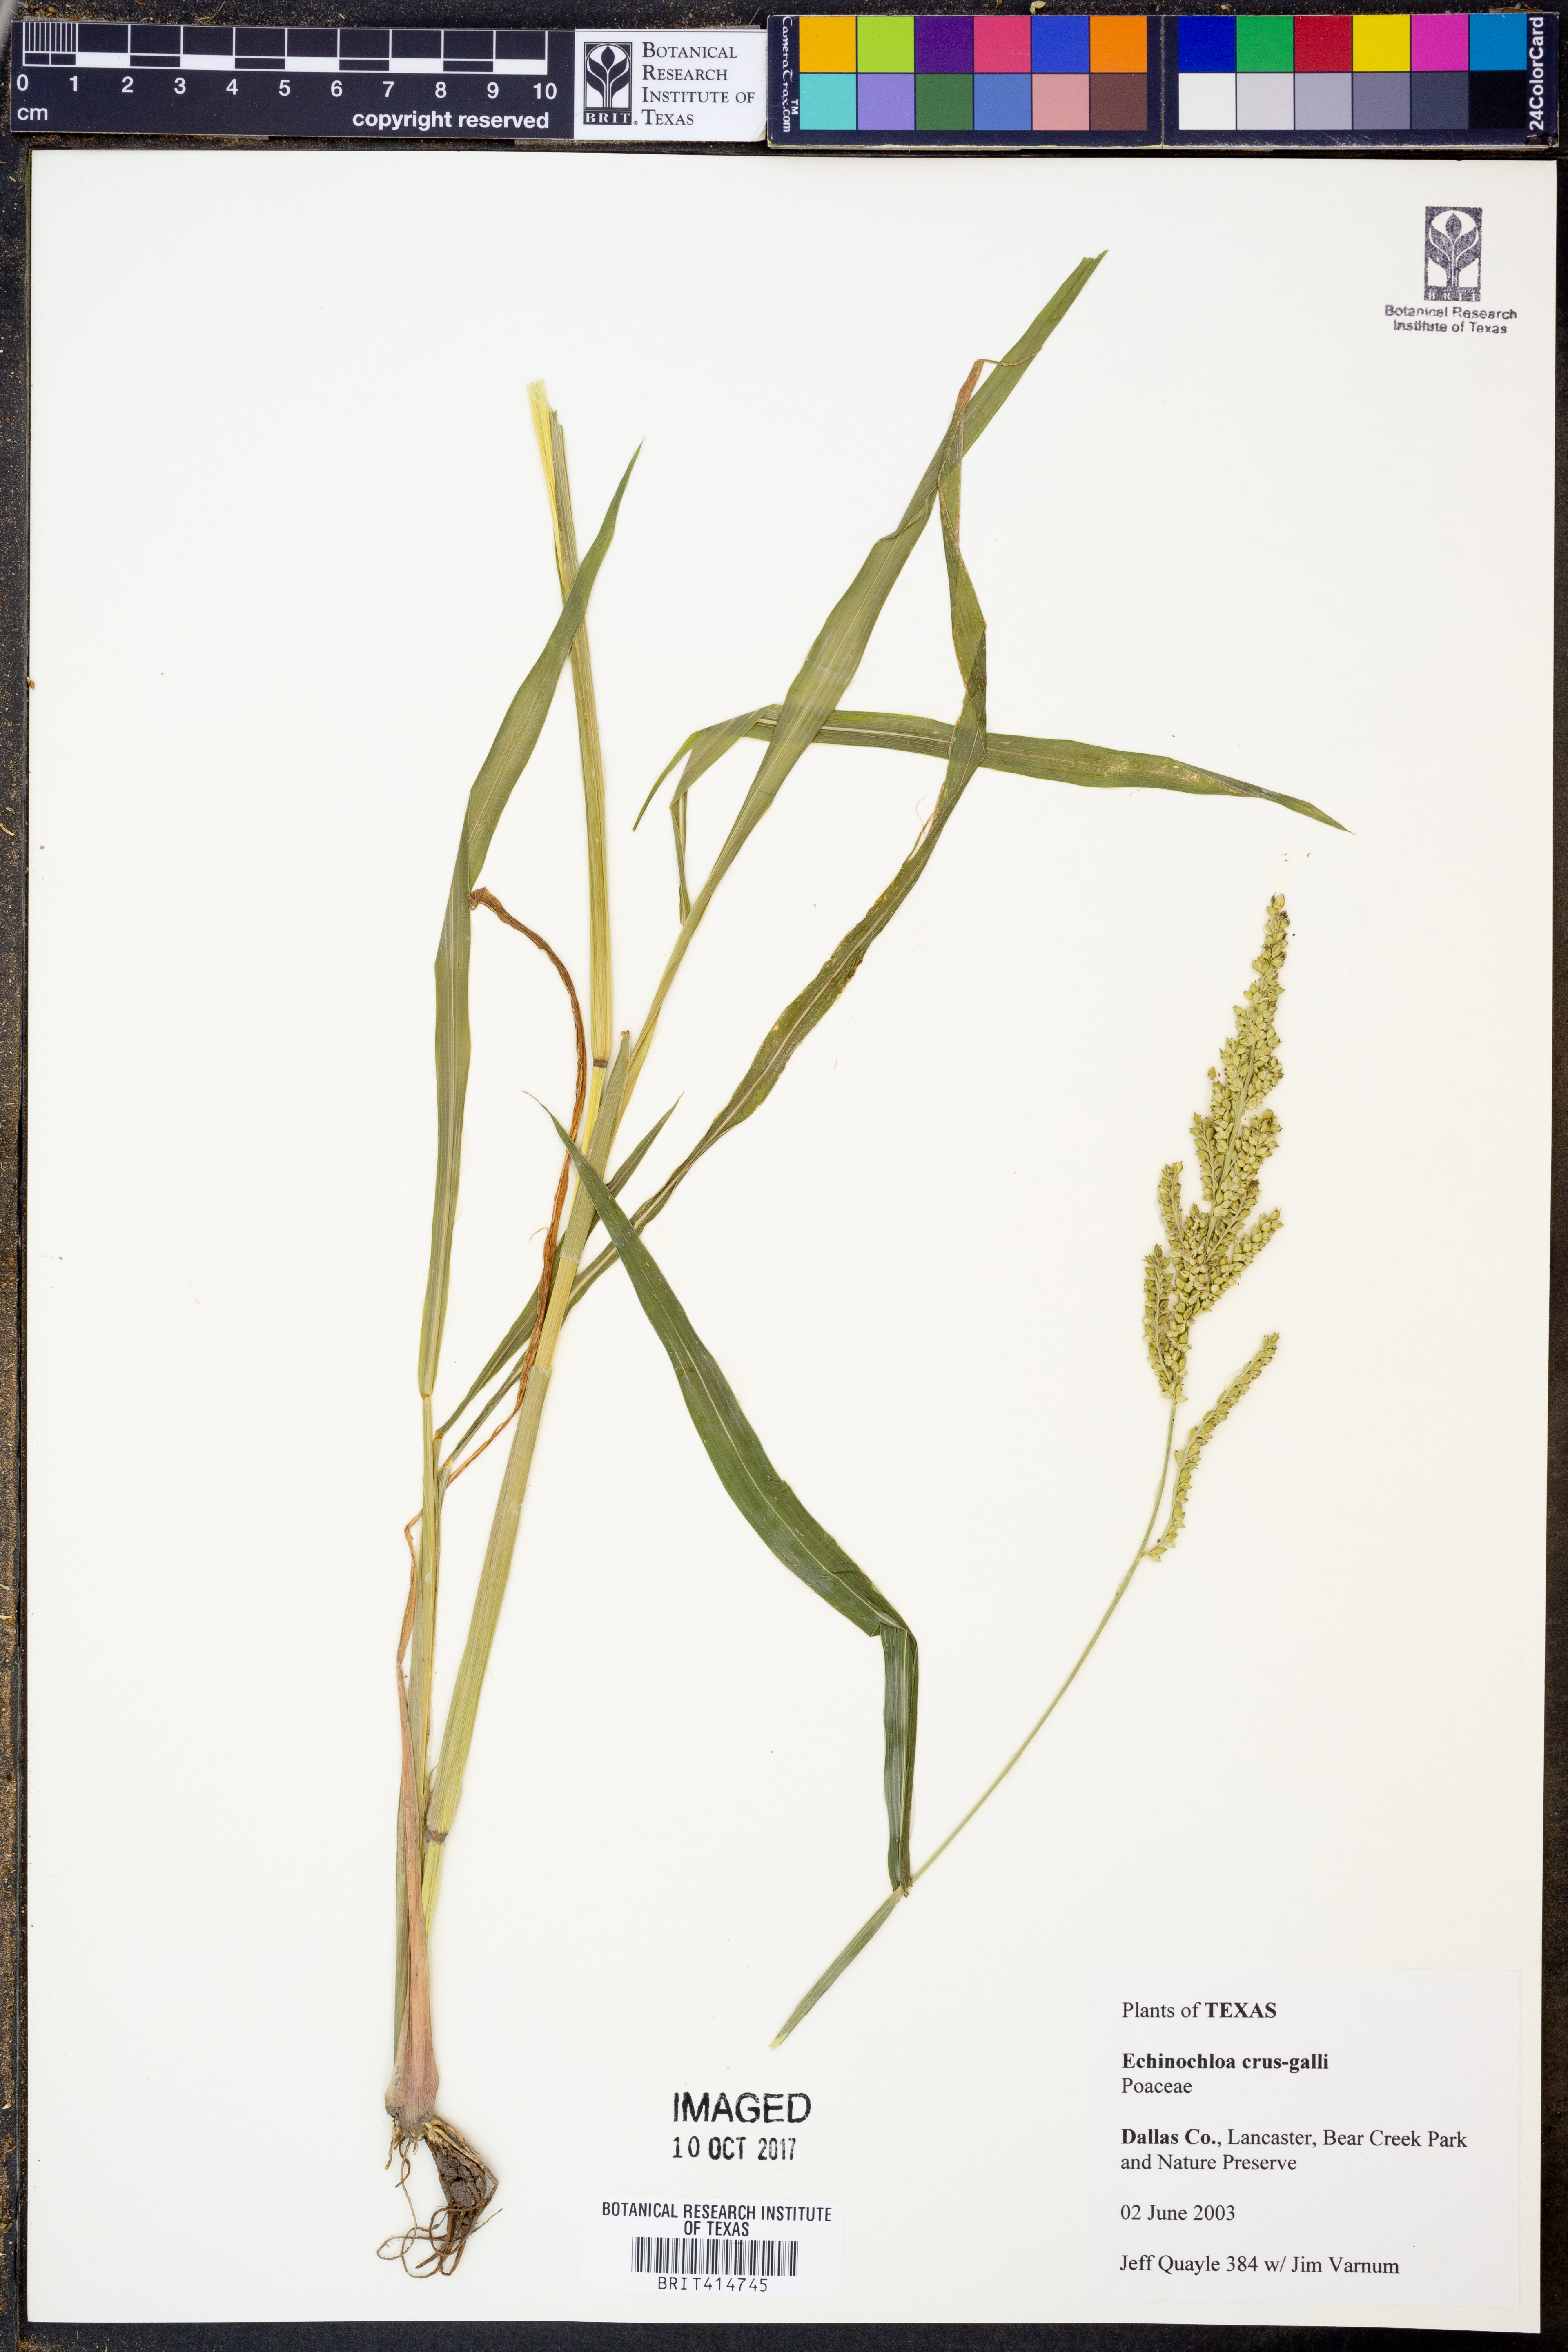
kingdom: Plantae
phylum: Tracheophyta
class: Liliopsida
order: Poales
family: Poaceae
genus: Echinochloa
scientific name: Echinochloa crus-galli
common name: Cockspur
